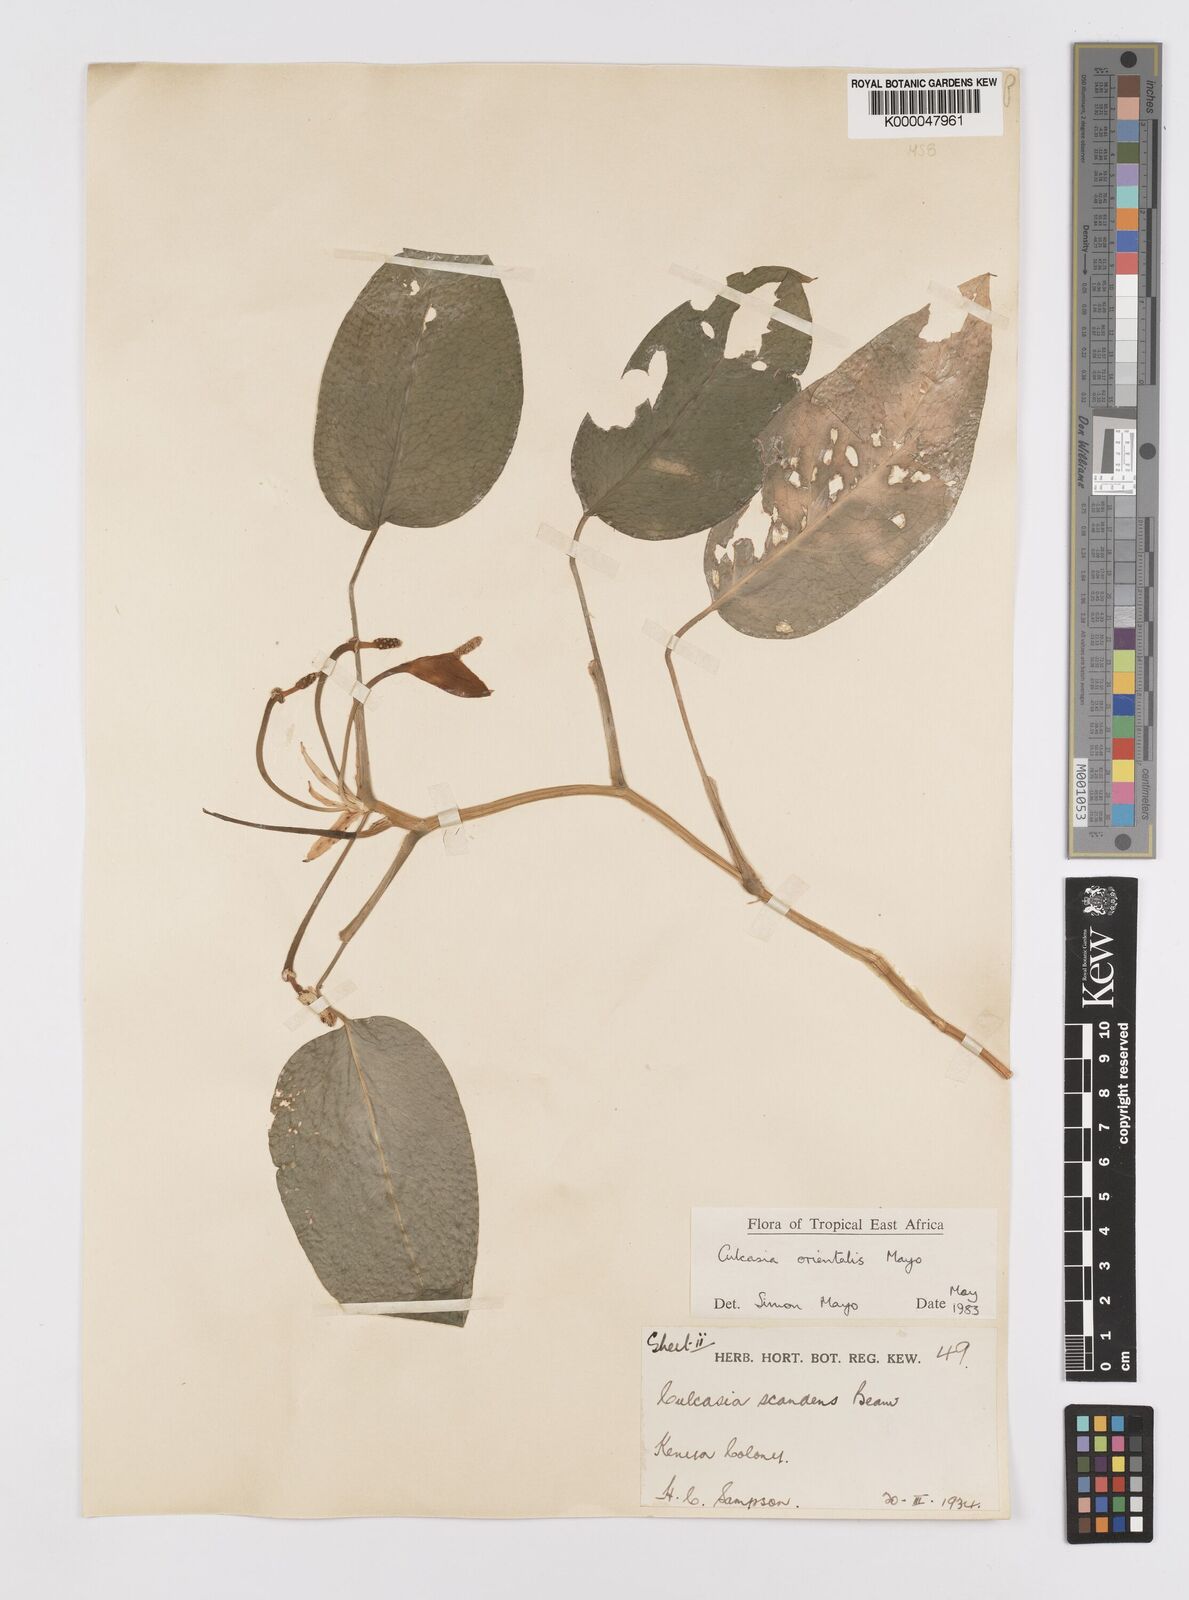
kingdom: Plantae
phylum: Tracheophyta
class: Liliopsida
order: Alismatales
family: Araceae
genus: Culcasia
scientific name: Culcasia orientalis
